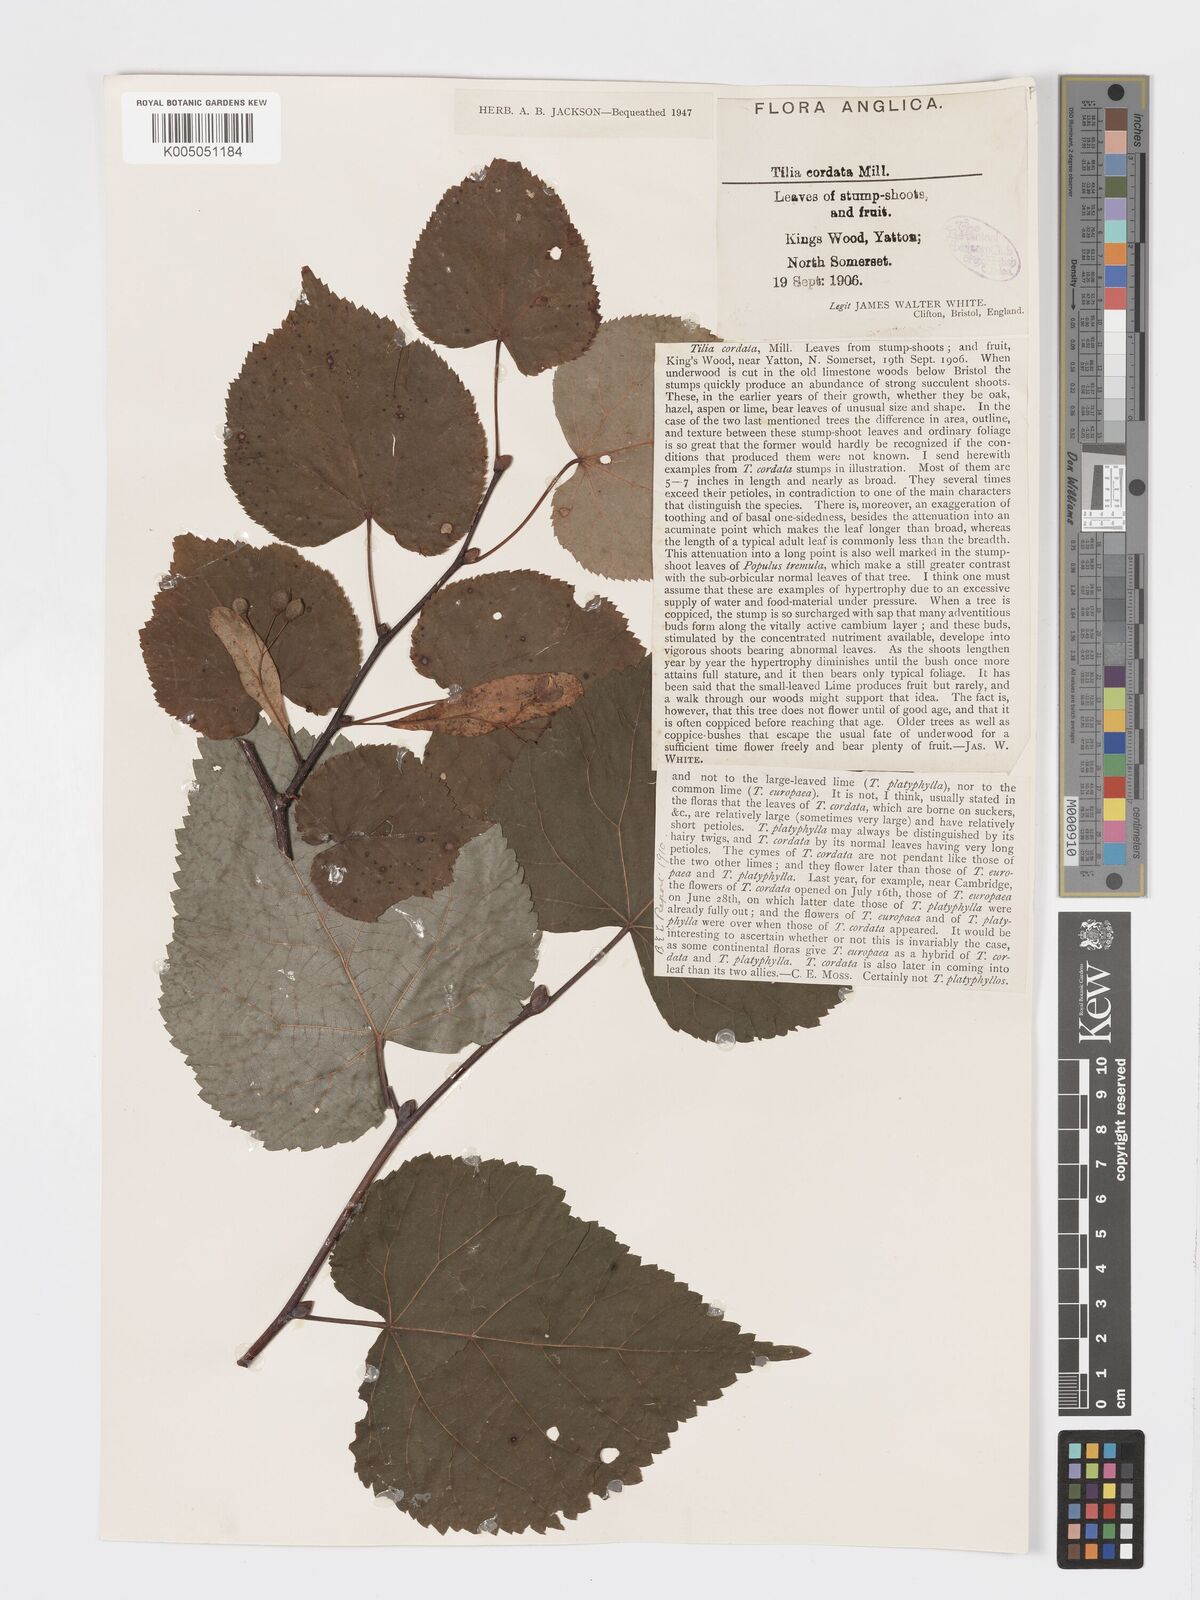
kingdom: Plantae
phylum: Tracheophyta
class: Magnoliopsida
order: Malvales
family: Malvaceae
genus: Tilia
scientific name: Tilia cordata
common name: Small-leaved lime
